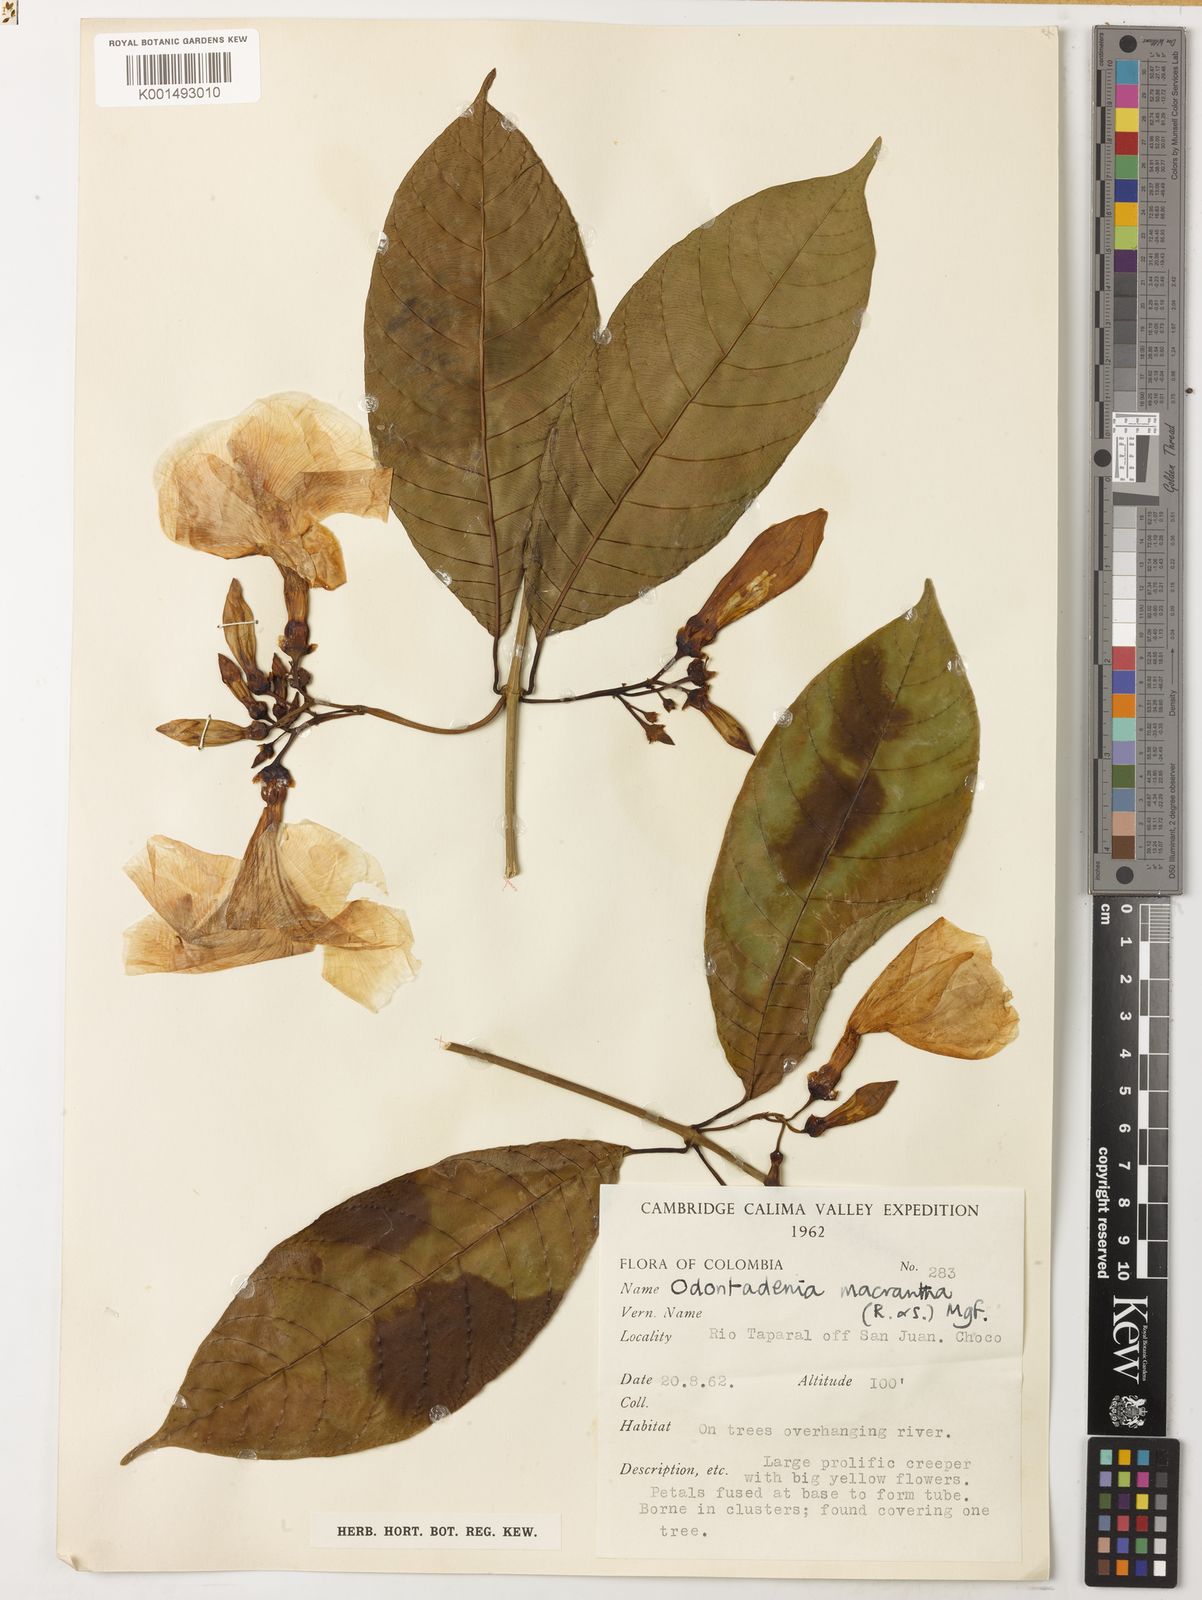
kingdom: Plantae
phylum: Tracheophyta
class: Magnoliopsida
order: Gentianales
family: Apocynaceae
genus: Odontadenia
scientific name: Odontadenia semidigyna
